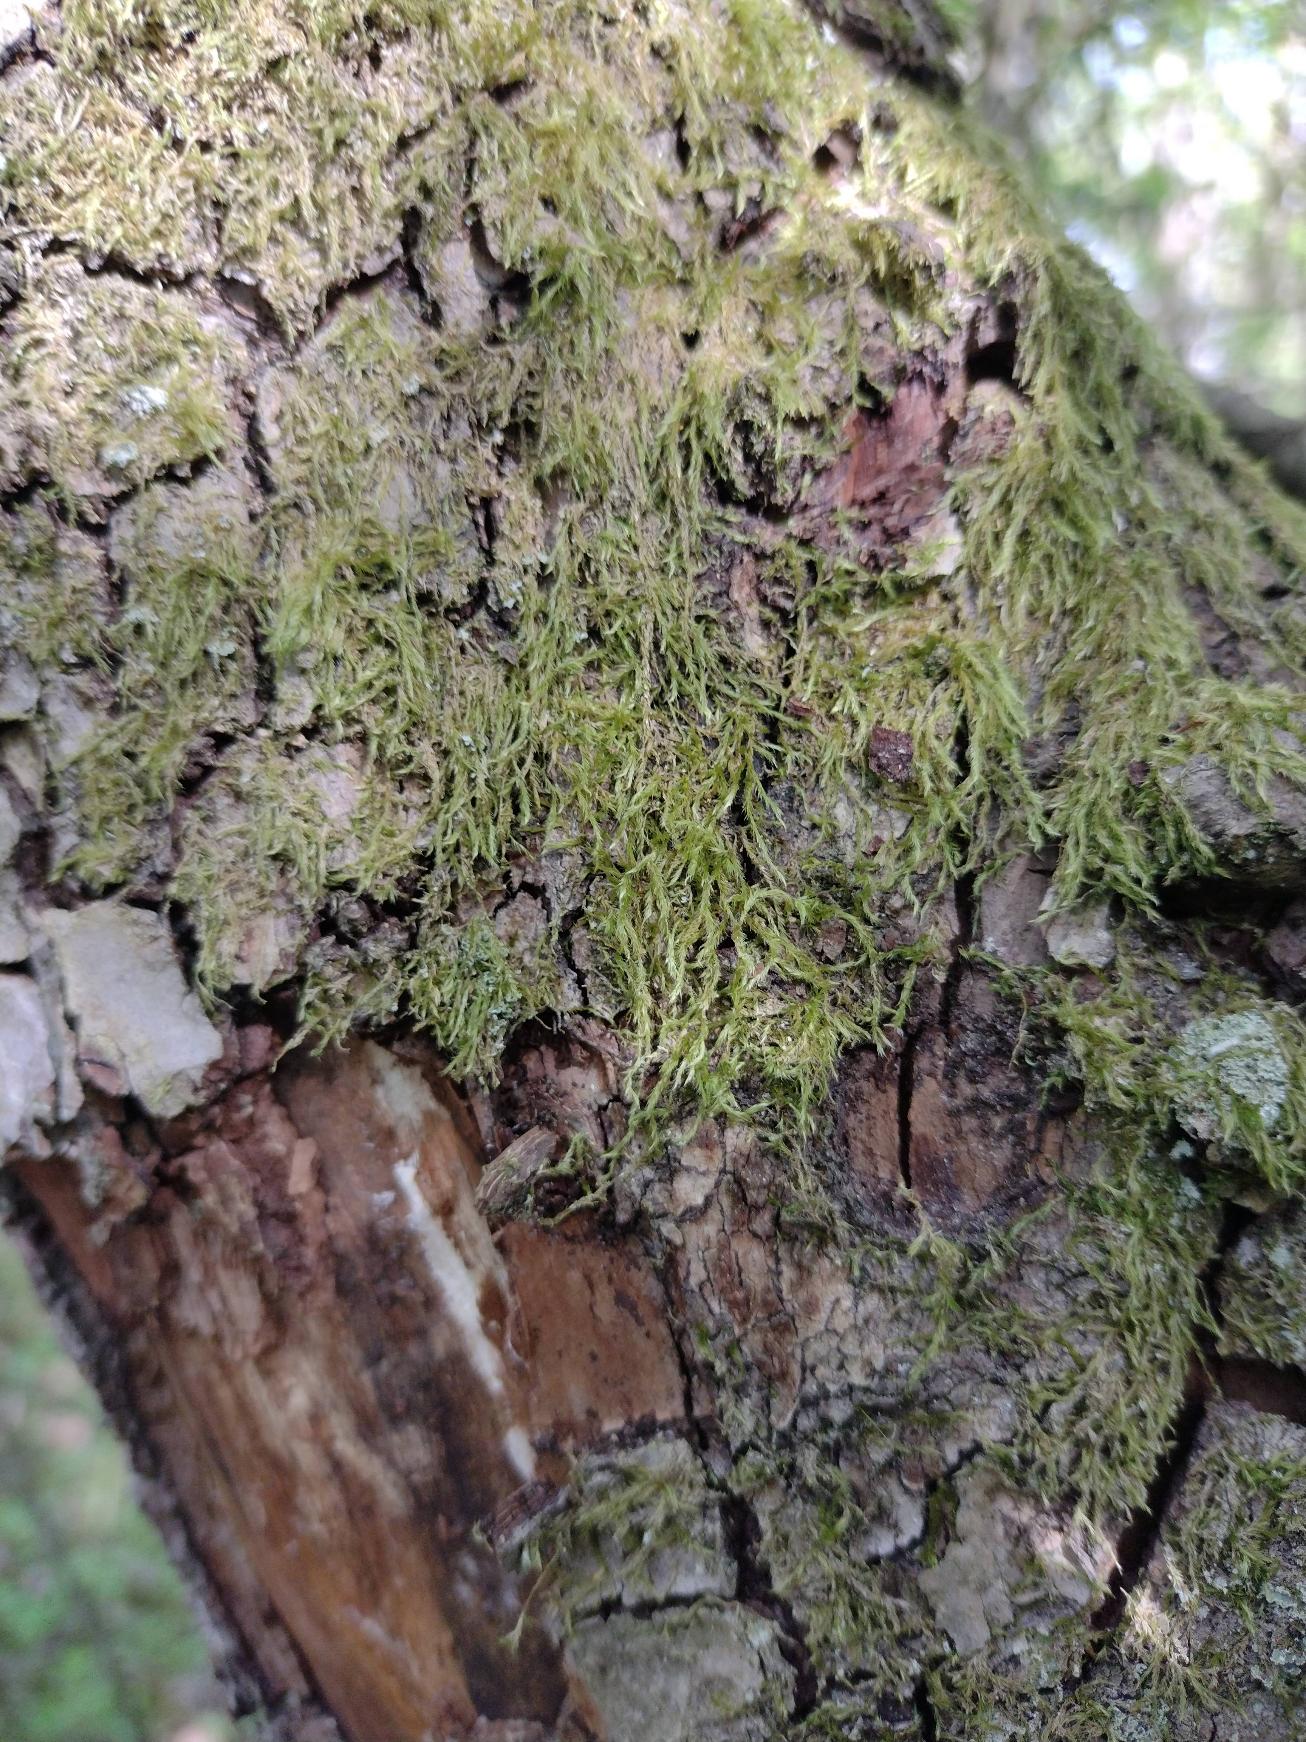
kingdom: Plantae
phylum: Bryophyta
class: Bryopsida
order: Hypnales
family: Hypnaceae
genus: Hypnum
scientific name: Hypnum
